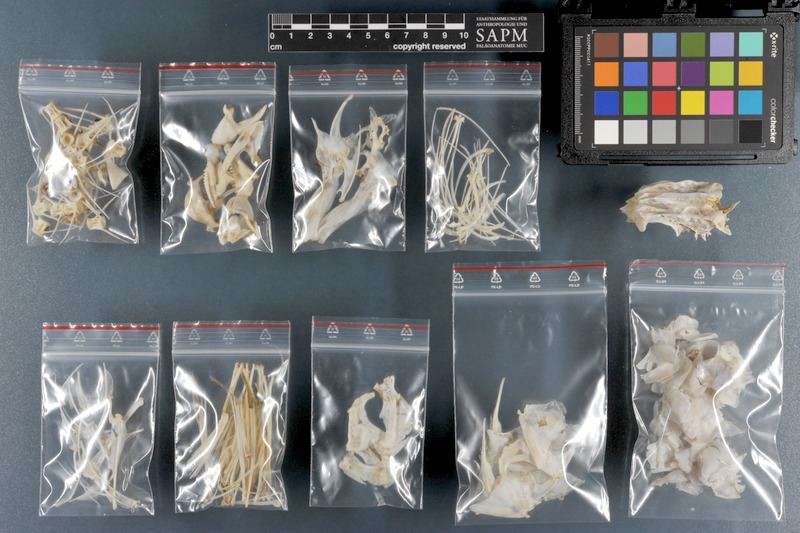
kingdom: Animalia
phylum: Chordata
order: Perciformes
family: Scaridae
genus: Scarus
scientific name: Scarus ghobban
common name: Blue-barred parrotfish
